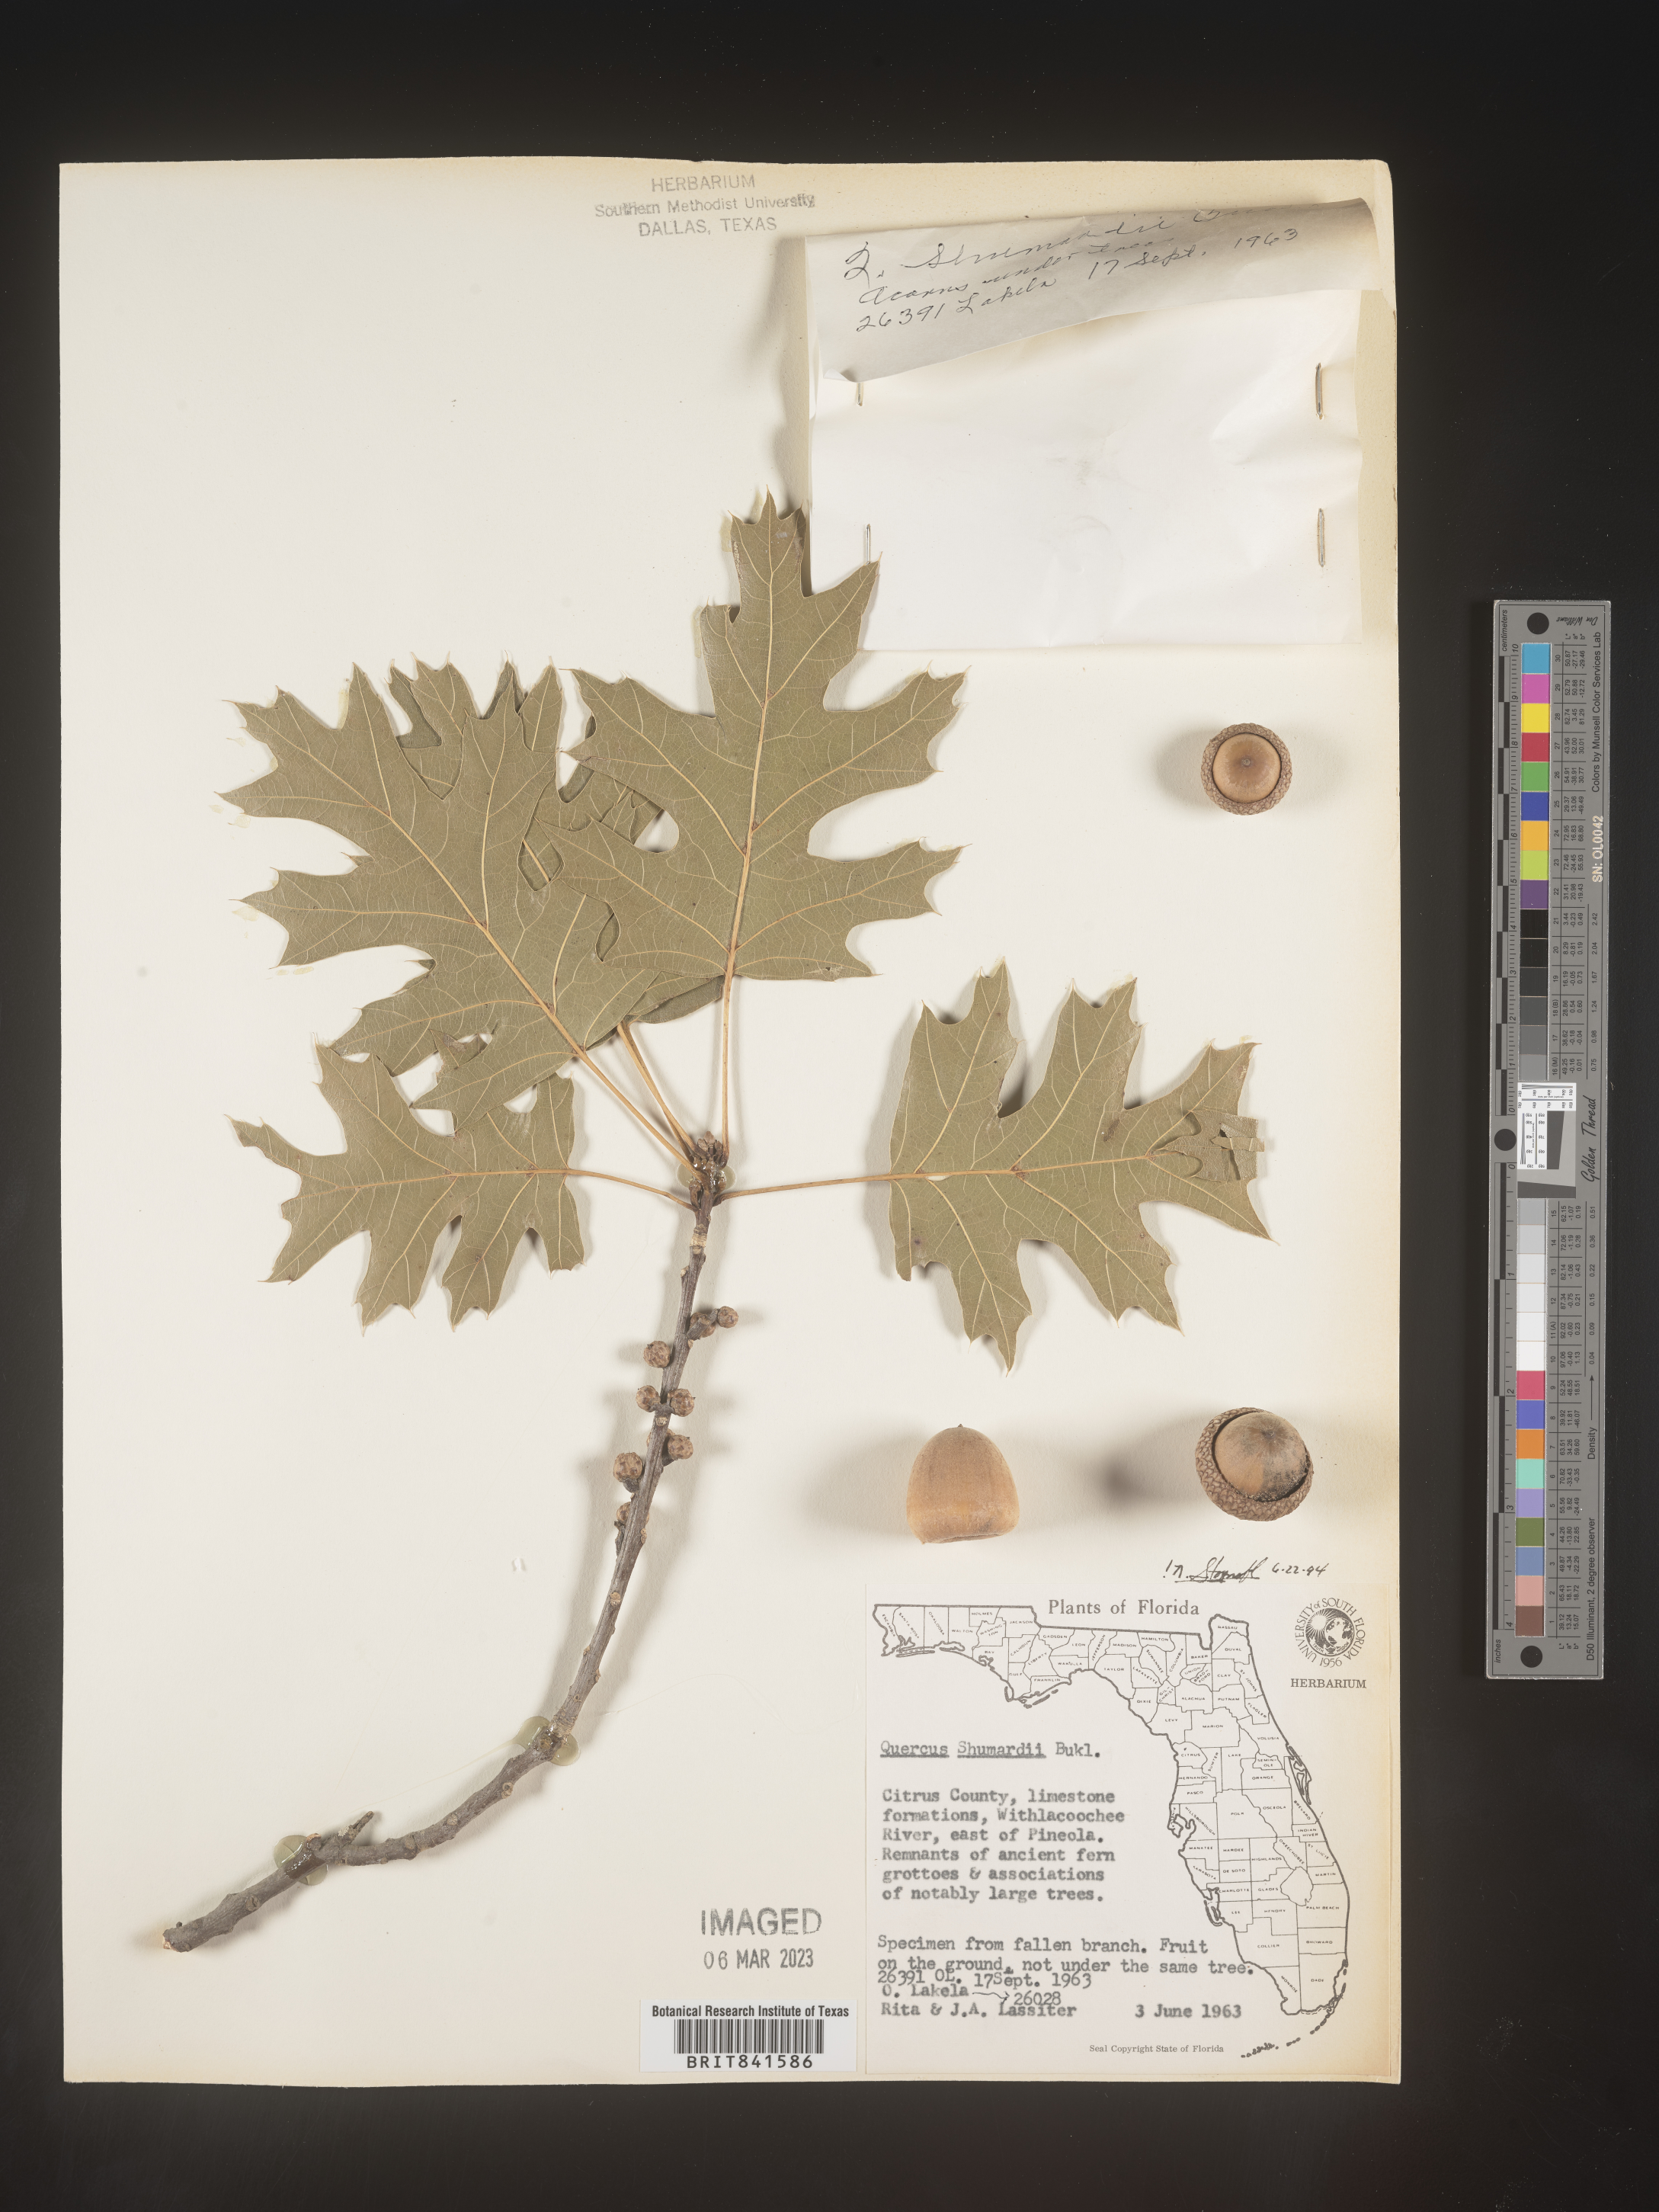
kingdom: Plantae
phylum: Tracheophyta
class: Magnoliopsida
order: Fagales
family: Fagaceae
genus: Quercus
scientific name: Quercus shumardii
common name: Shumard oak
